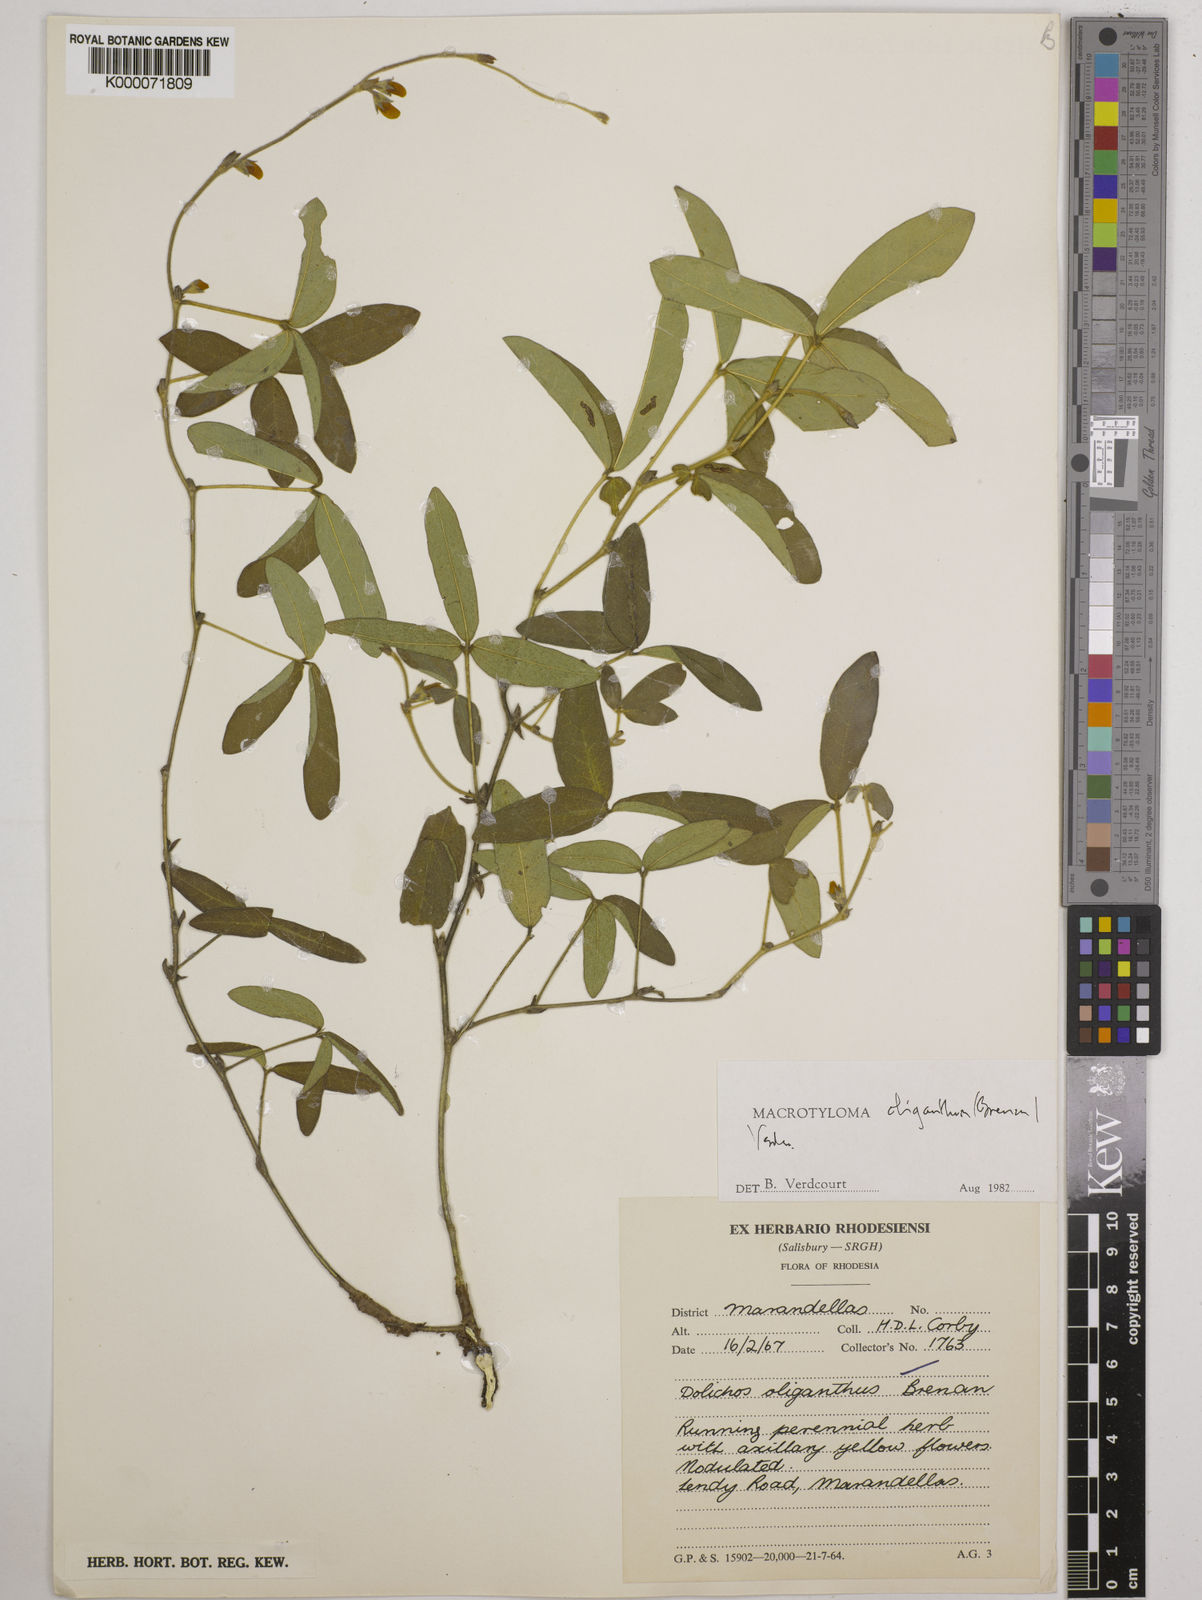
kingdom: Plantae
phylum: Tracheophyta
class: Magnoliopsida
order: Fabales
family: Fabaceae
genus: Macrotyloma
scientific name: Macrotyloma oliganthum
